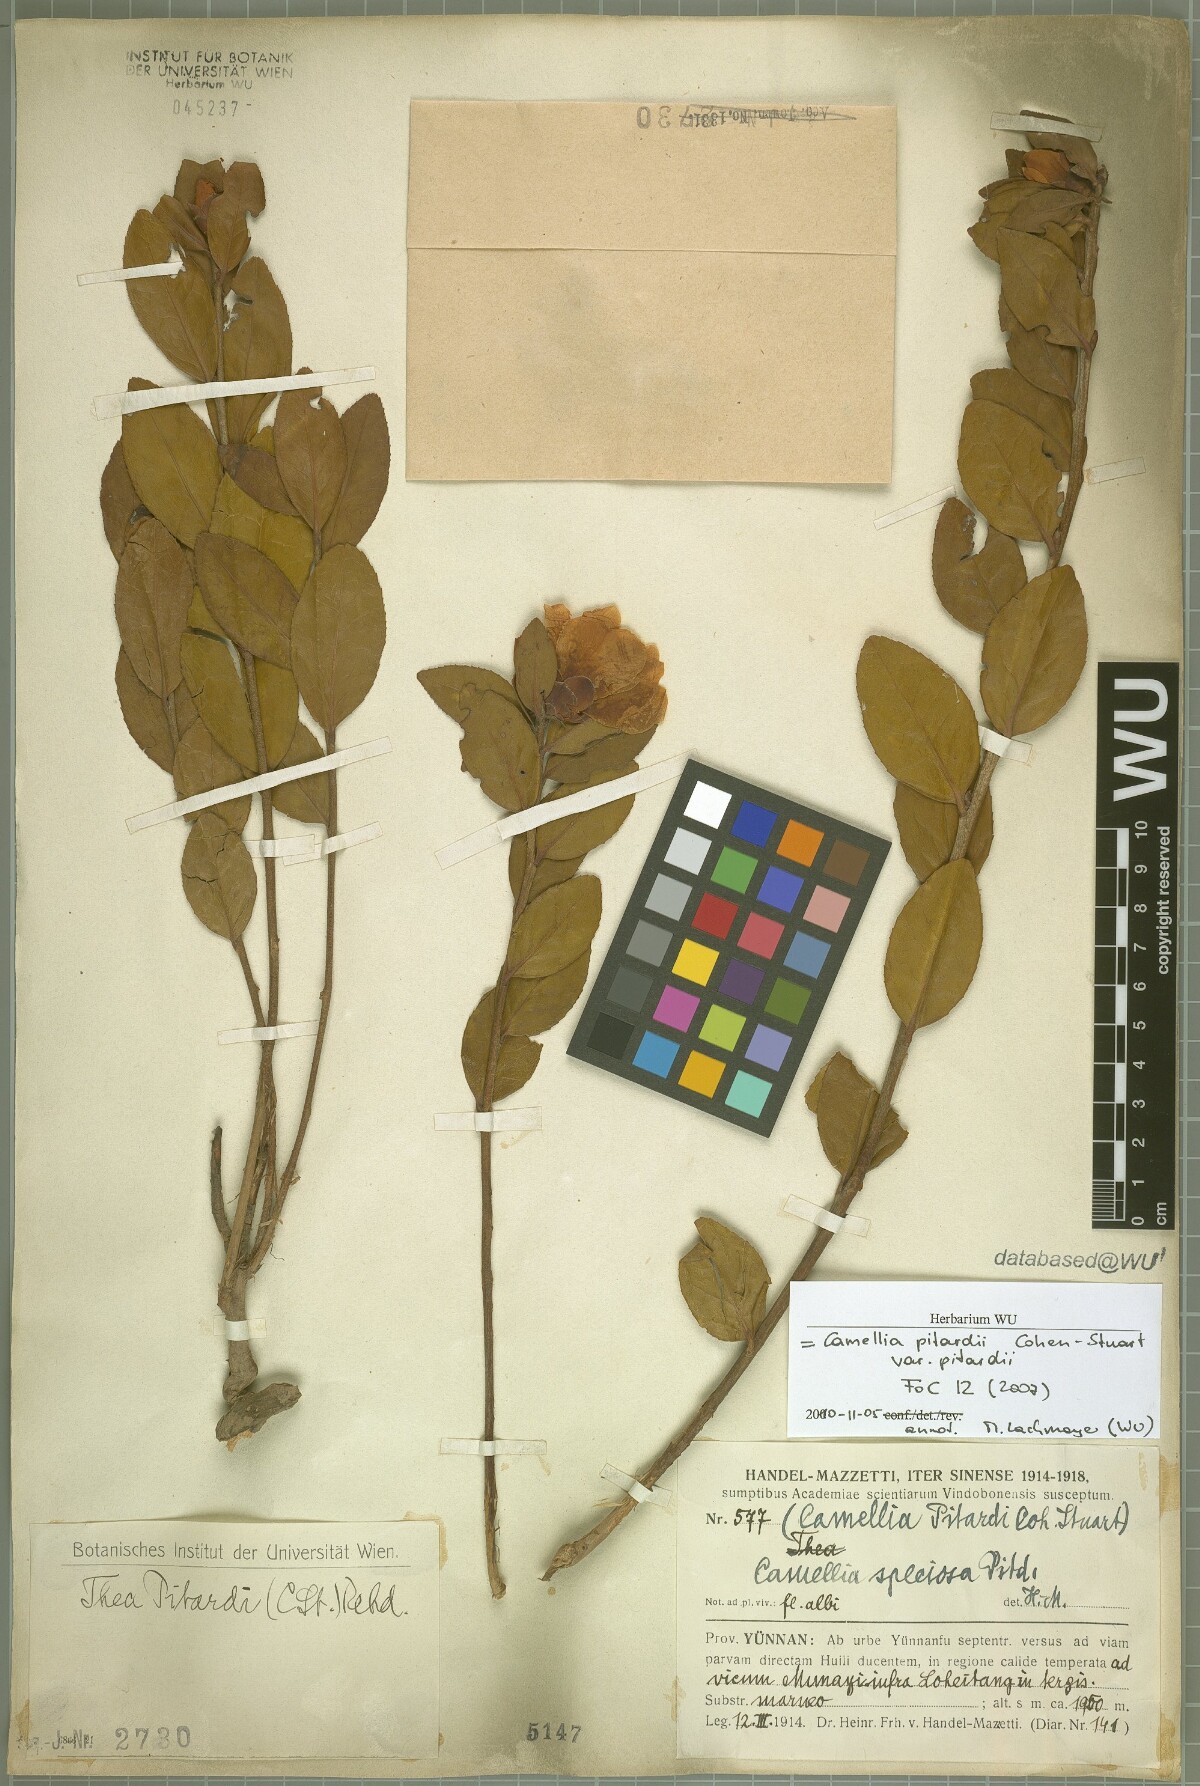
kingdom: Plantae
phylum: Tracheophyta
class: Magnoliopsida
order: Ericales
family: Theaceae
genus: Camellia
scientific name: Camellia pitardii
